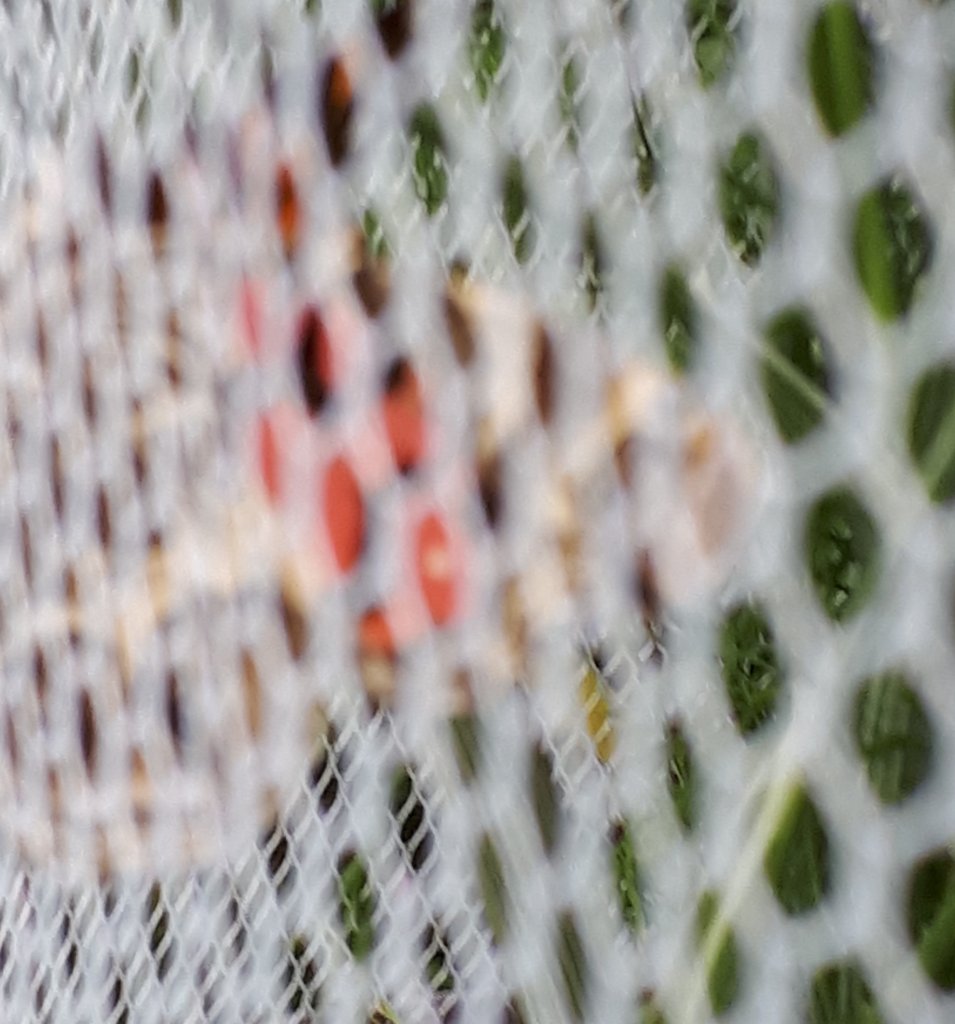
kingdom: Animalia
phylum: Arthropoda
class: Insecta
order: Lepidoptera
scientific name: Lepidoptera
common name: Butterflies
